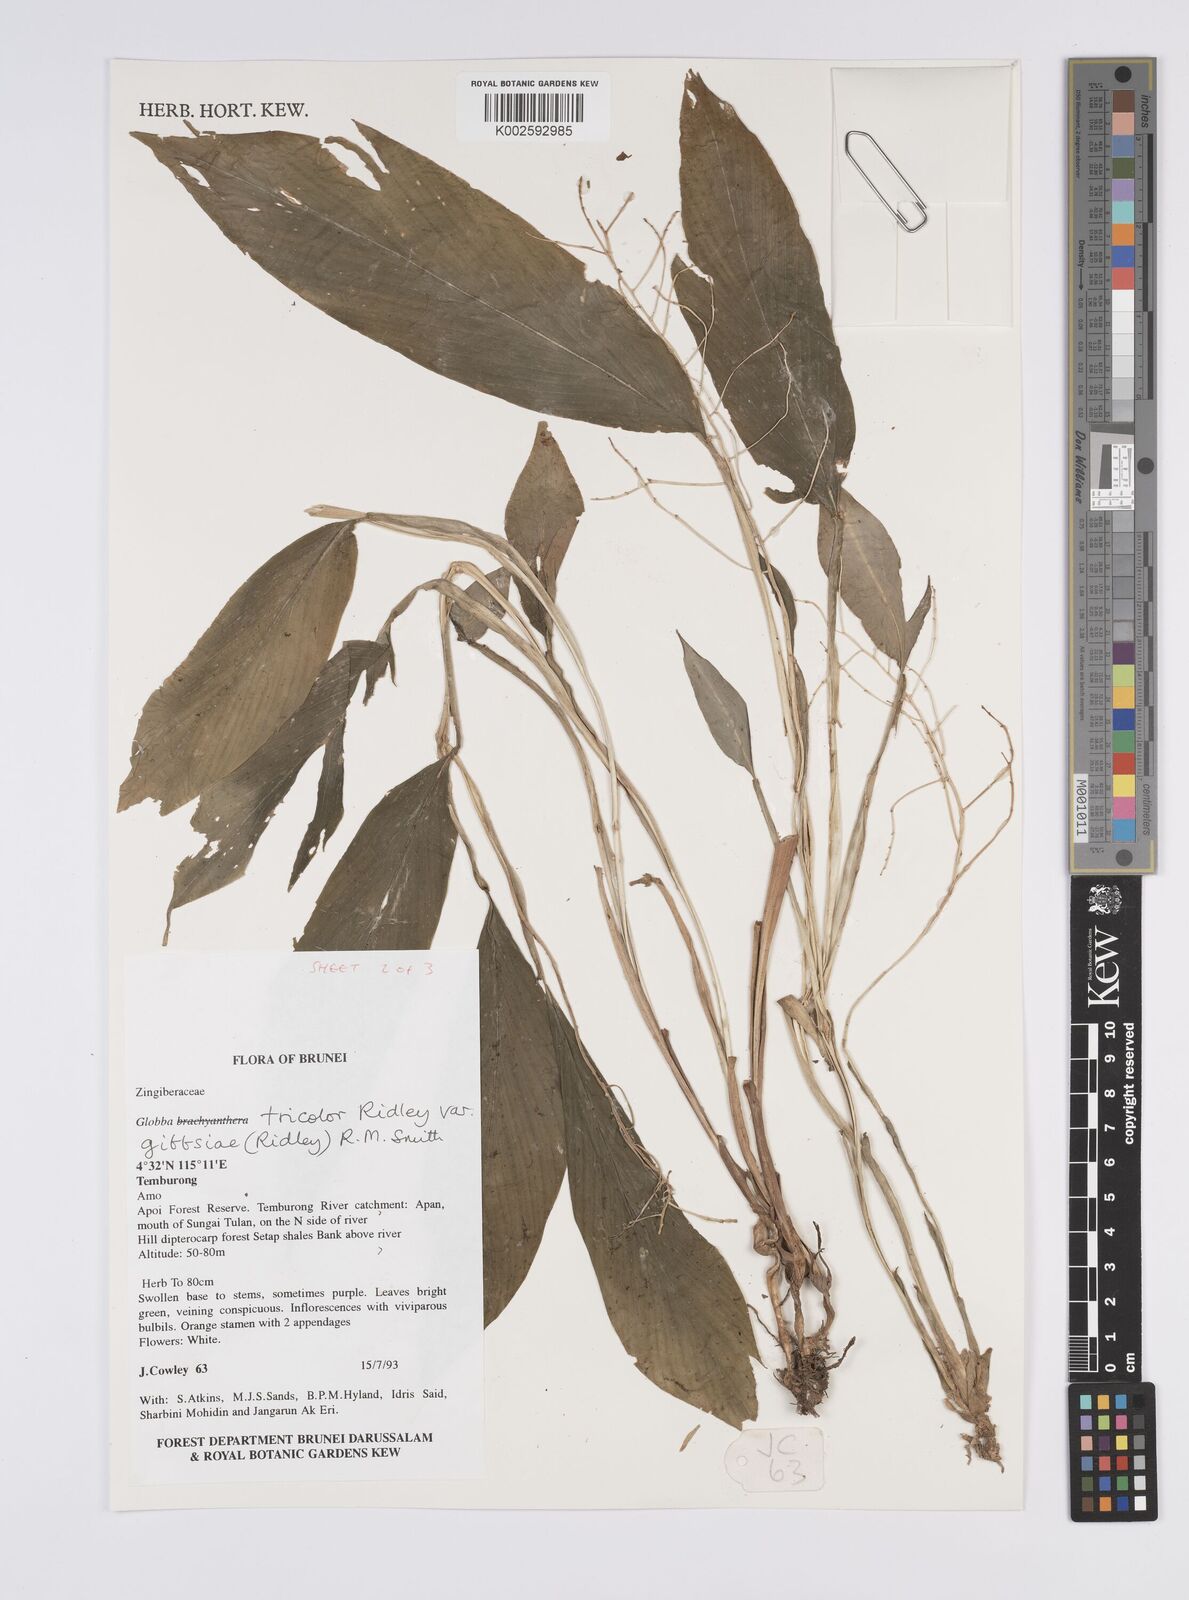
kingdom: Plantae
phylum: Tracheophyta
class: Liliopsida
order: Zingiberales
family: Zingiberaceae
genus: Globba
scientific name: Globba tricolor
